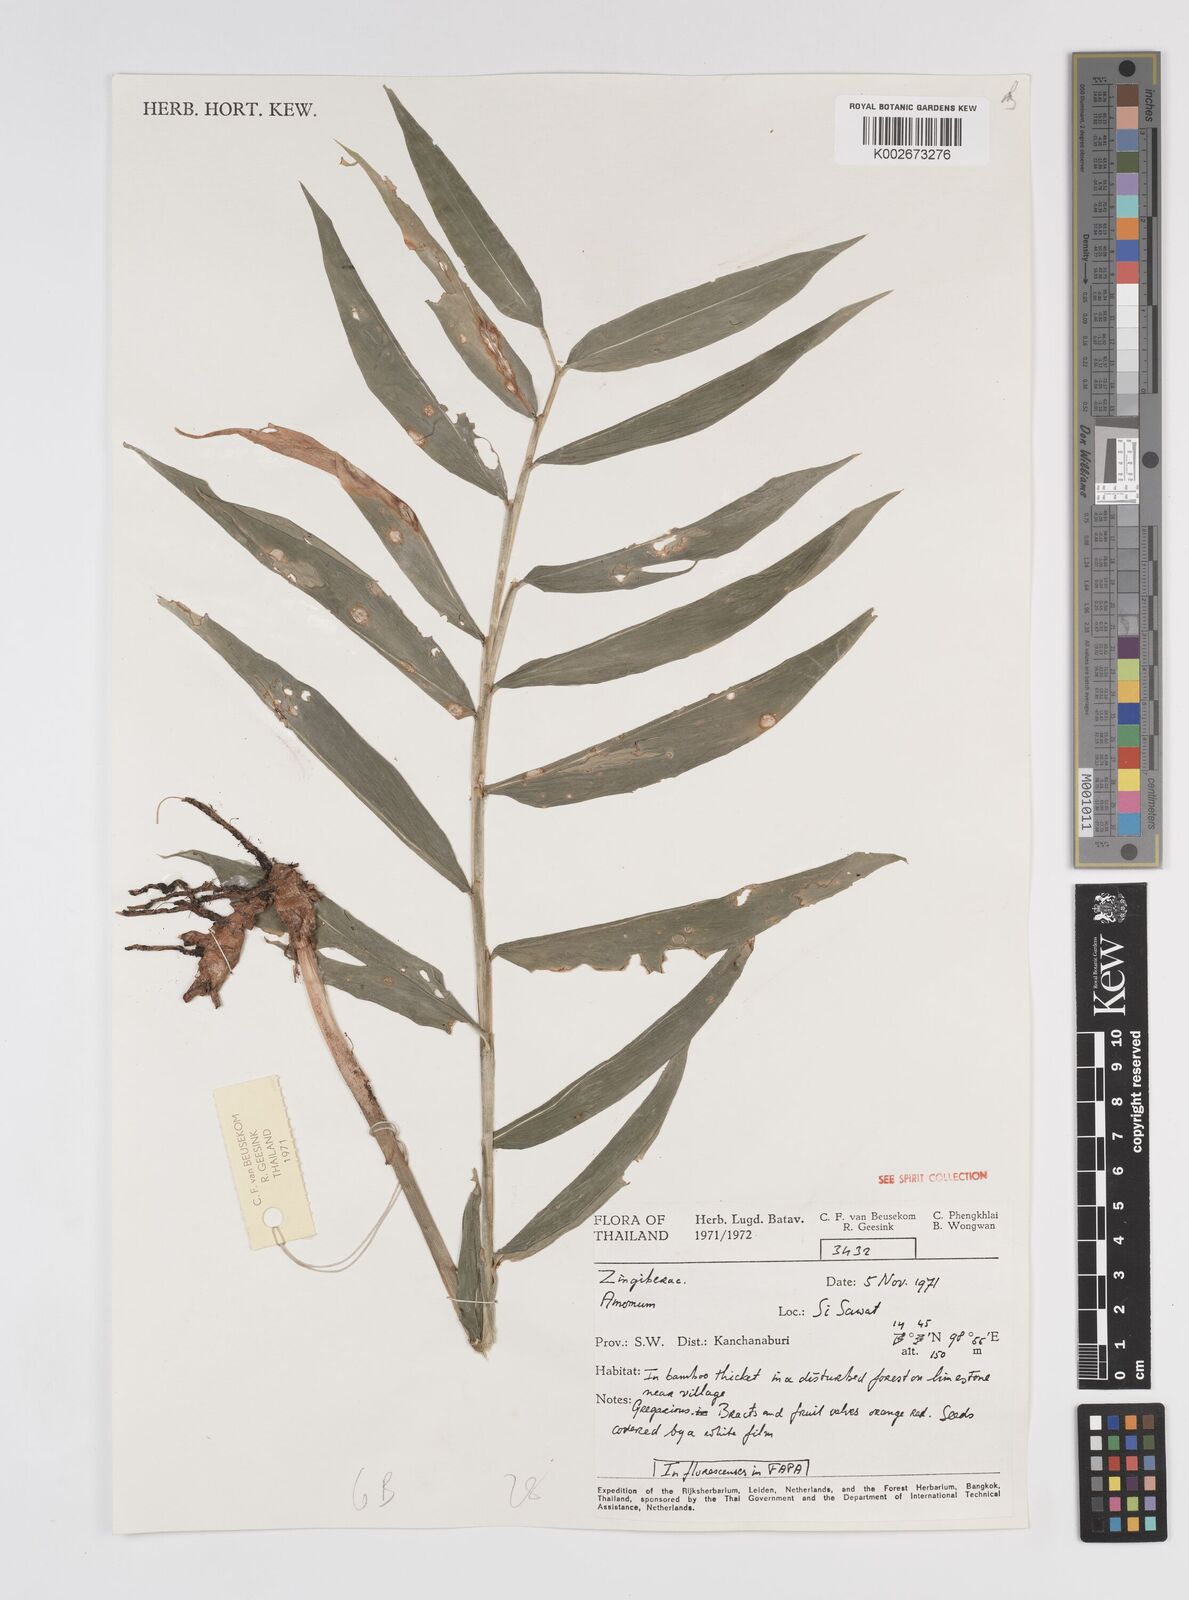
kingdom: Plantae
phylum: Tracheophyta
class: Liliopsida
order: Zingiberales
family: Zingiberaceae
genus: Amomum
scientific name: Amomum
